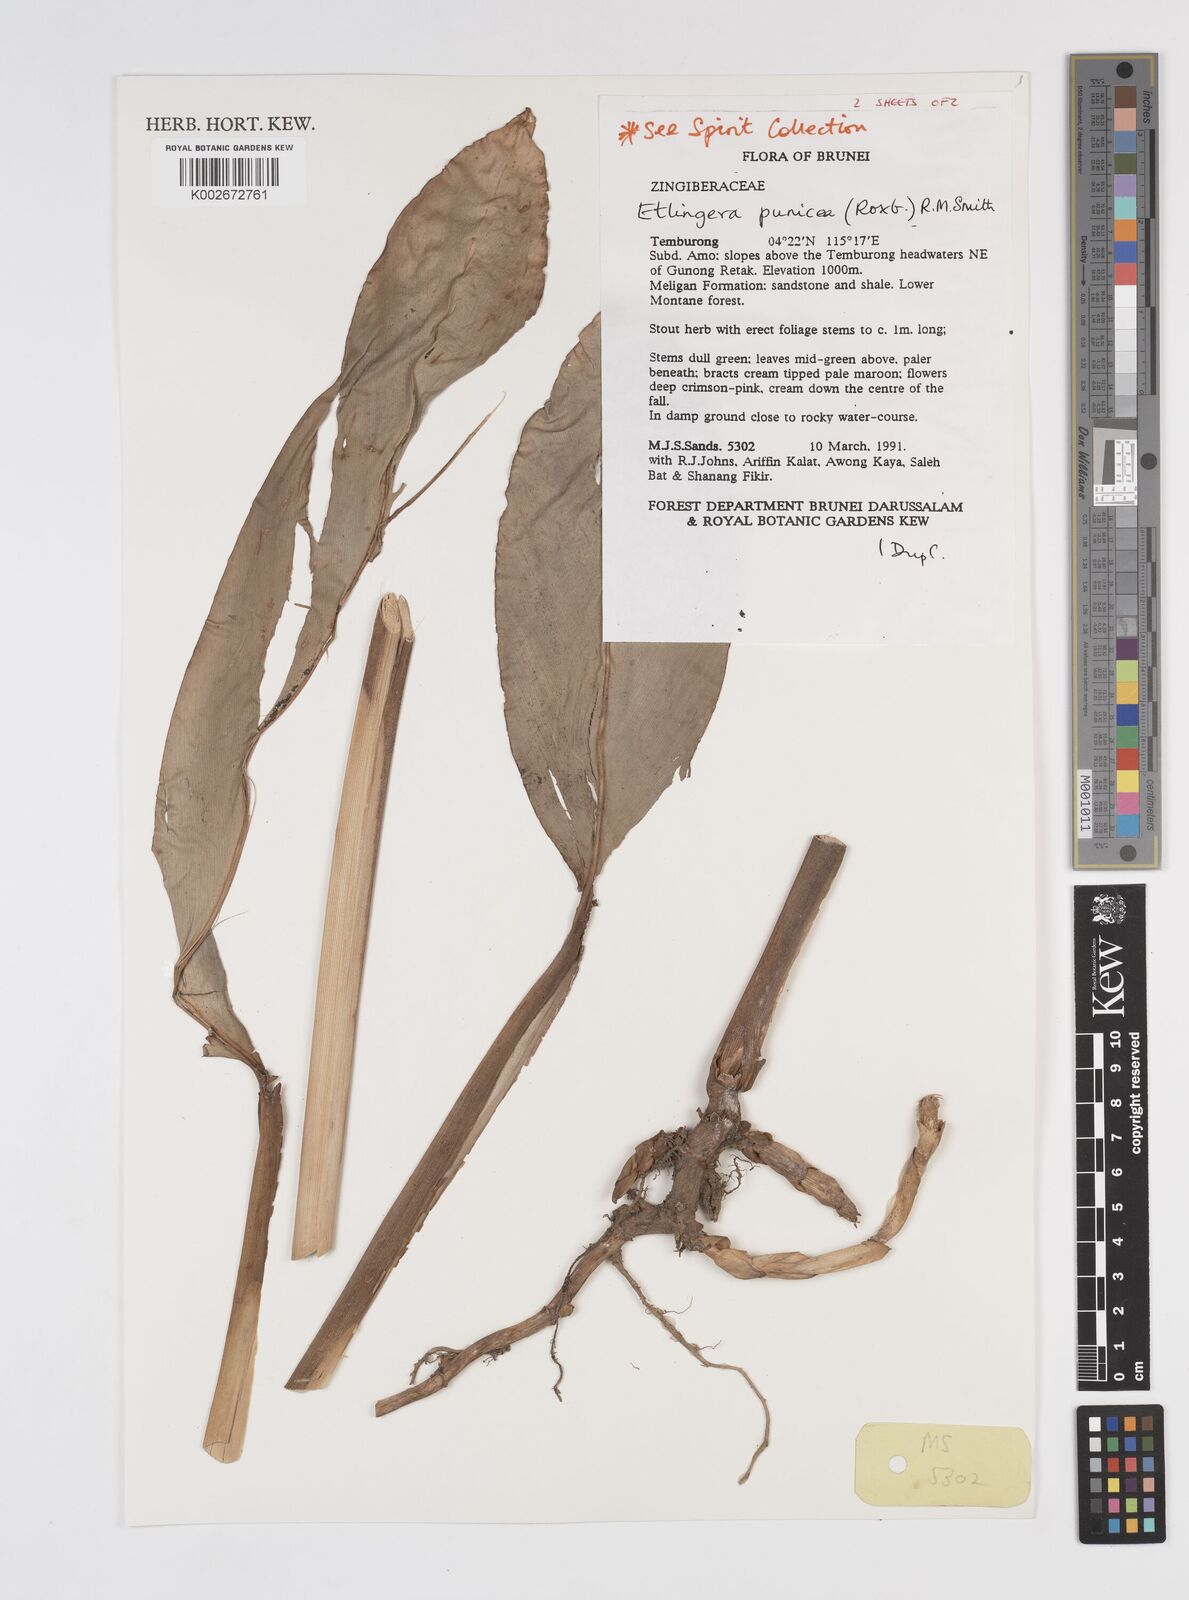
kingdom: Plantae
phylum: Tracheophyta
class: Liliopsida
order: Zingiberales
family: Zingiberaceae
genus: Etlingera
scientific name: Etlingera punicea
